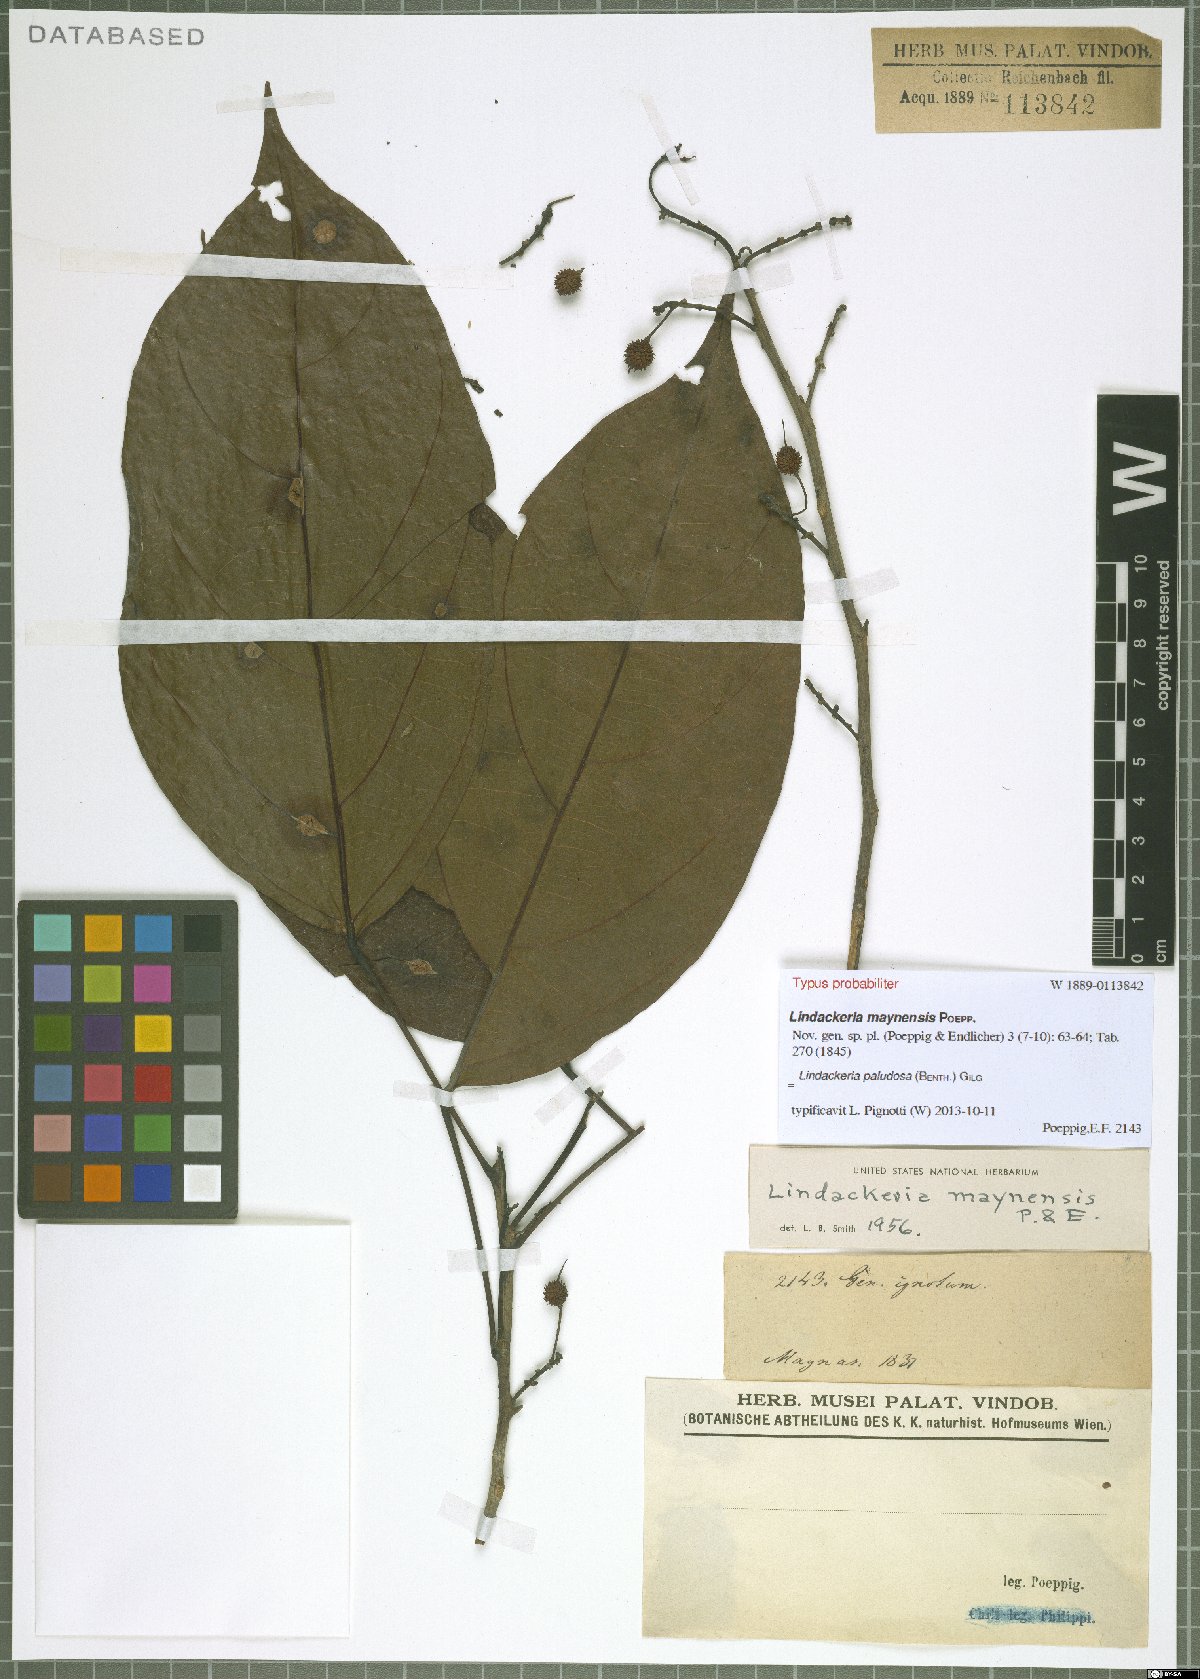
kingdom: Plantae
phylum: Tracheophyta
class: Magnoliopsida
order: Malpighiales
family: Achariaceae
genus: Lindackeria
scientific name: Lindackeria paludosa
